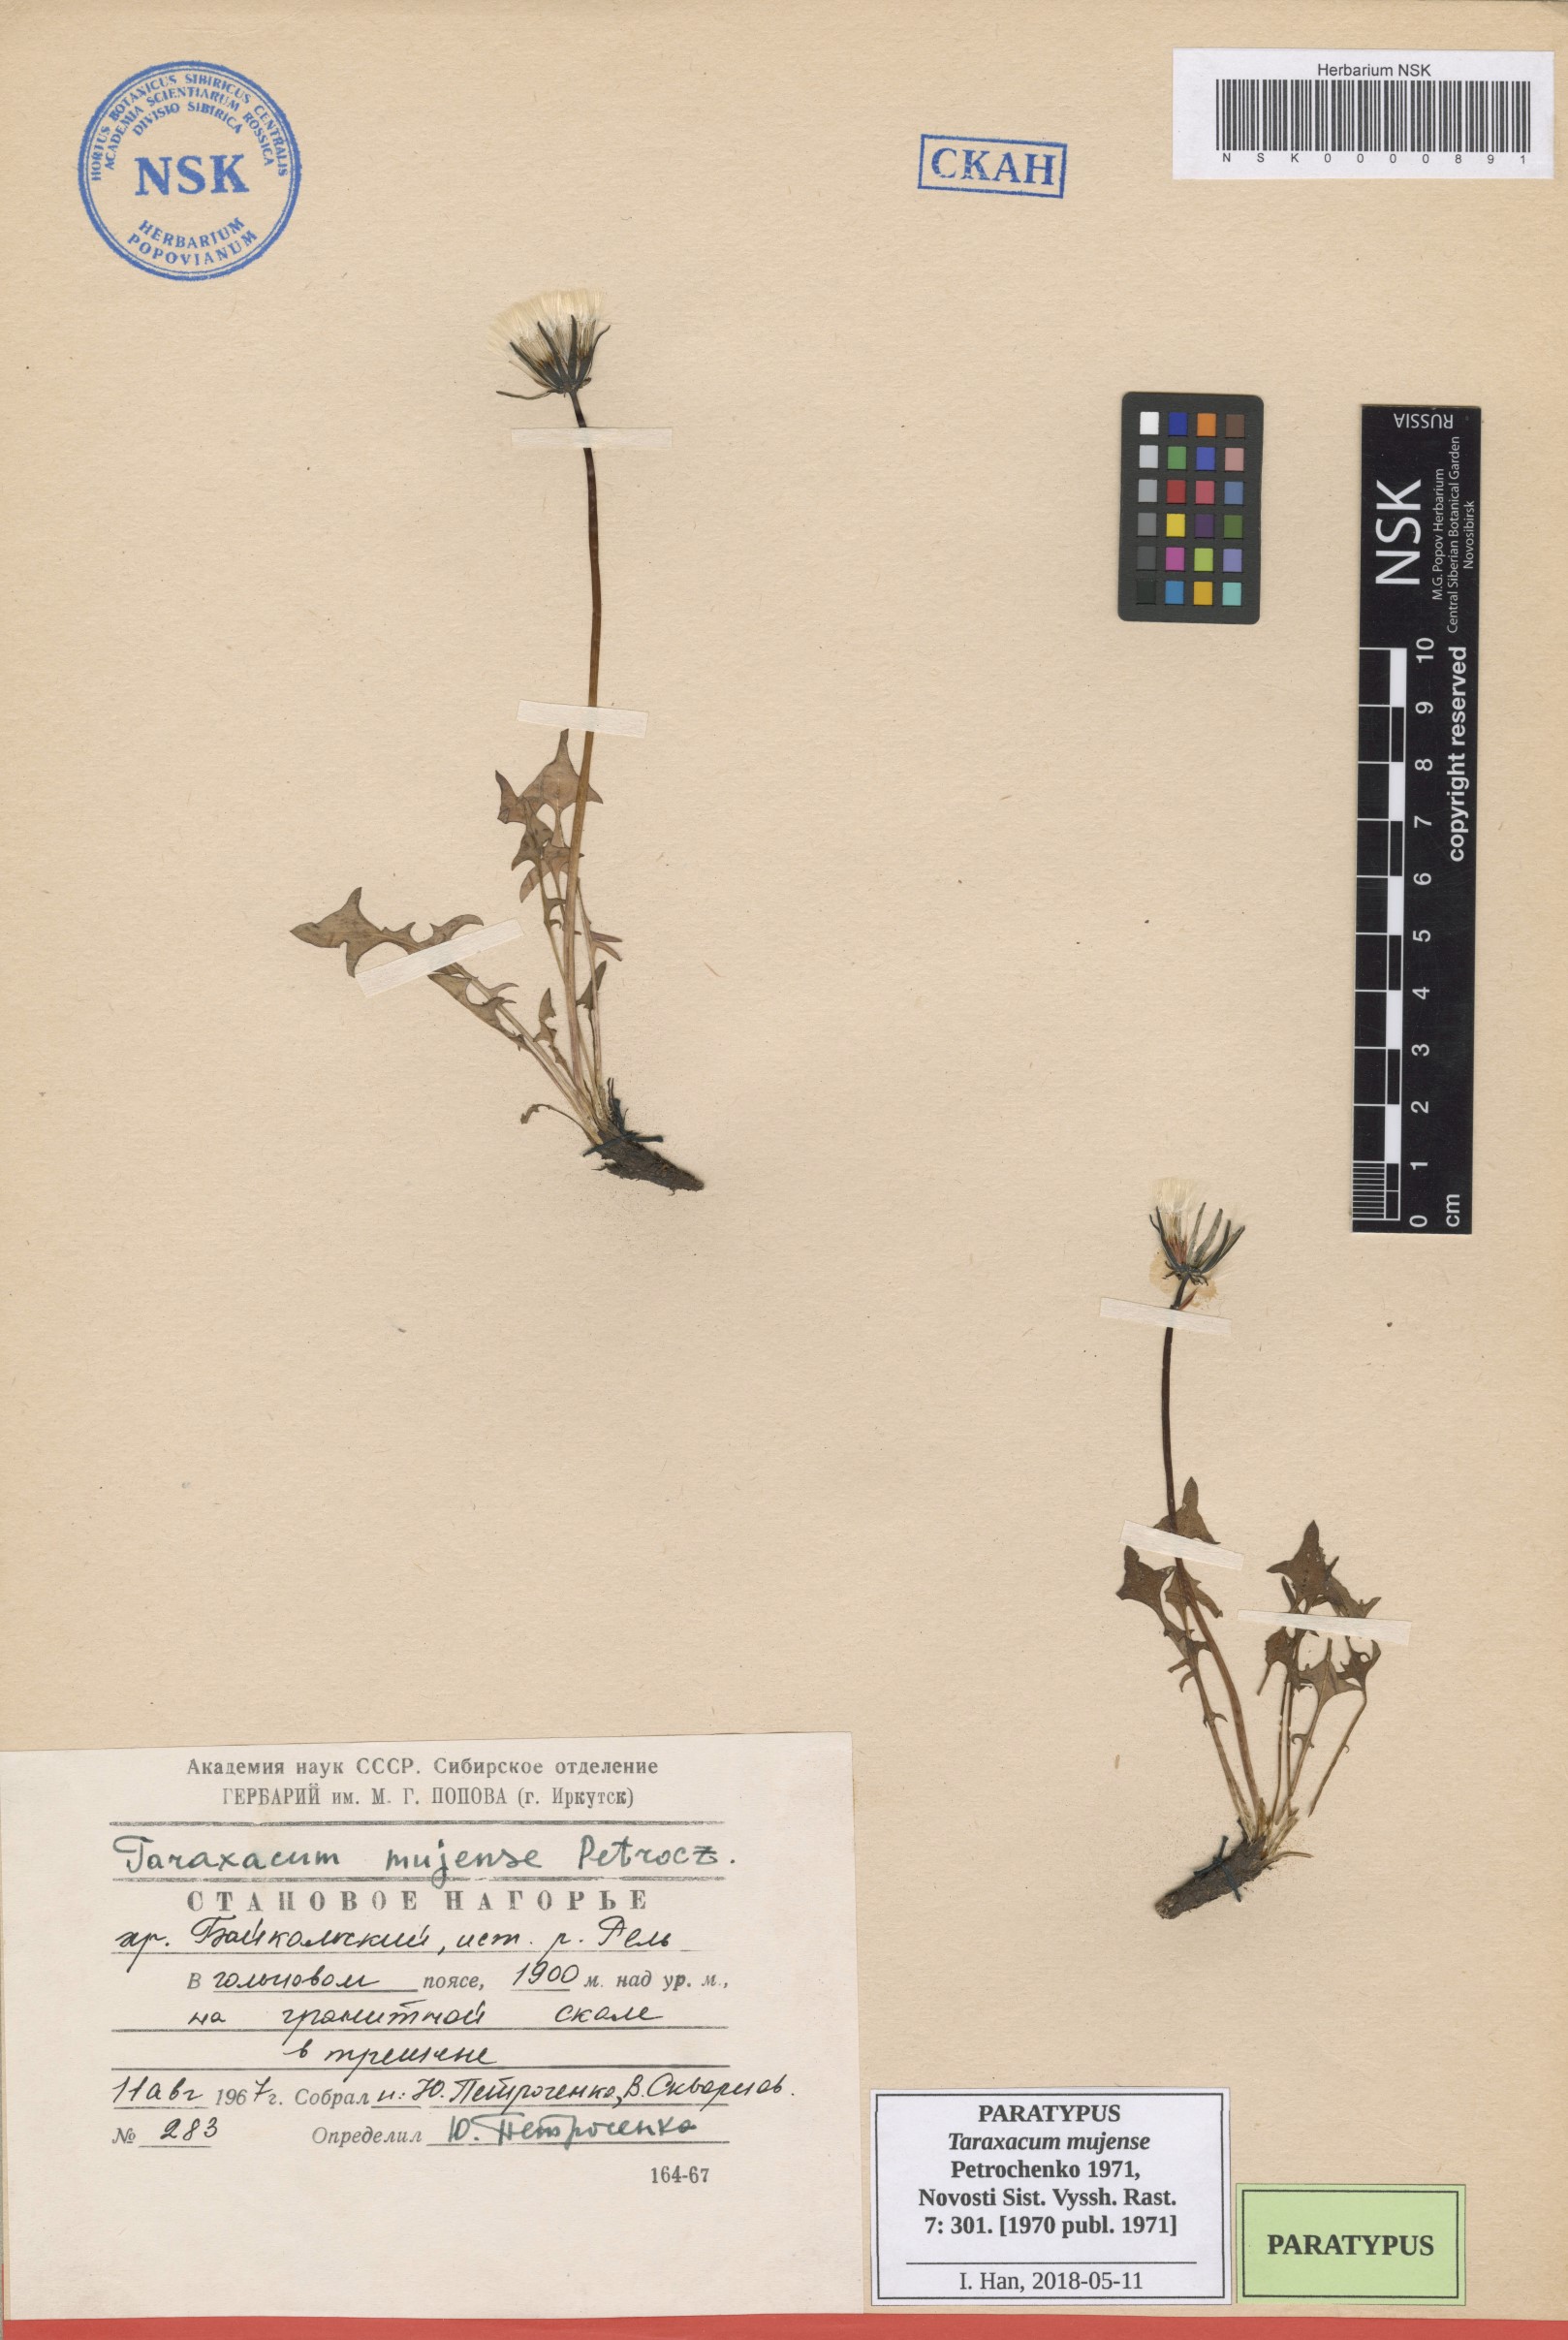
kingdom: Plantae
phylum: Tracheophyta
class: Magnoliopsida
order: Asterales
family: Asteraceae
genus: Taraxacum
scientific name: Taraxacum mujense
